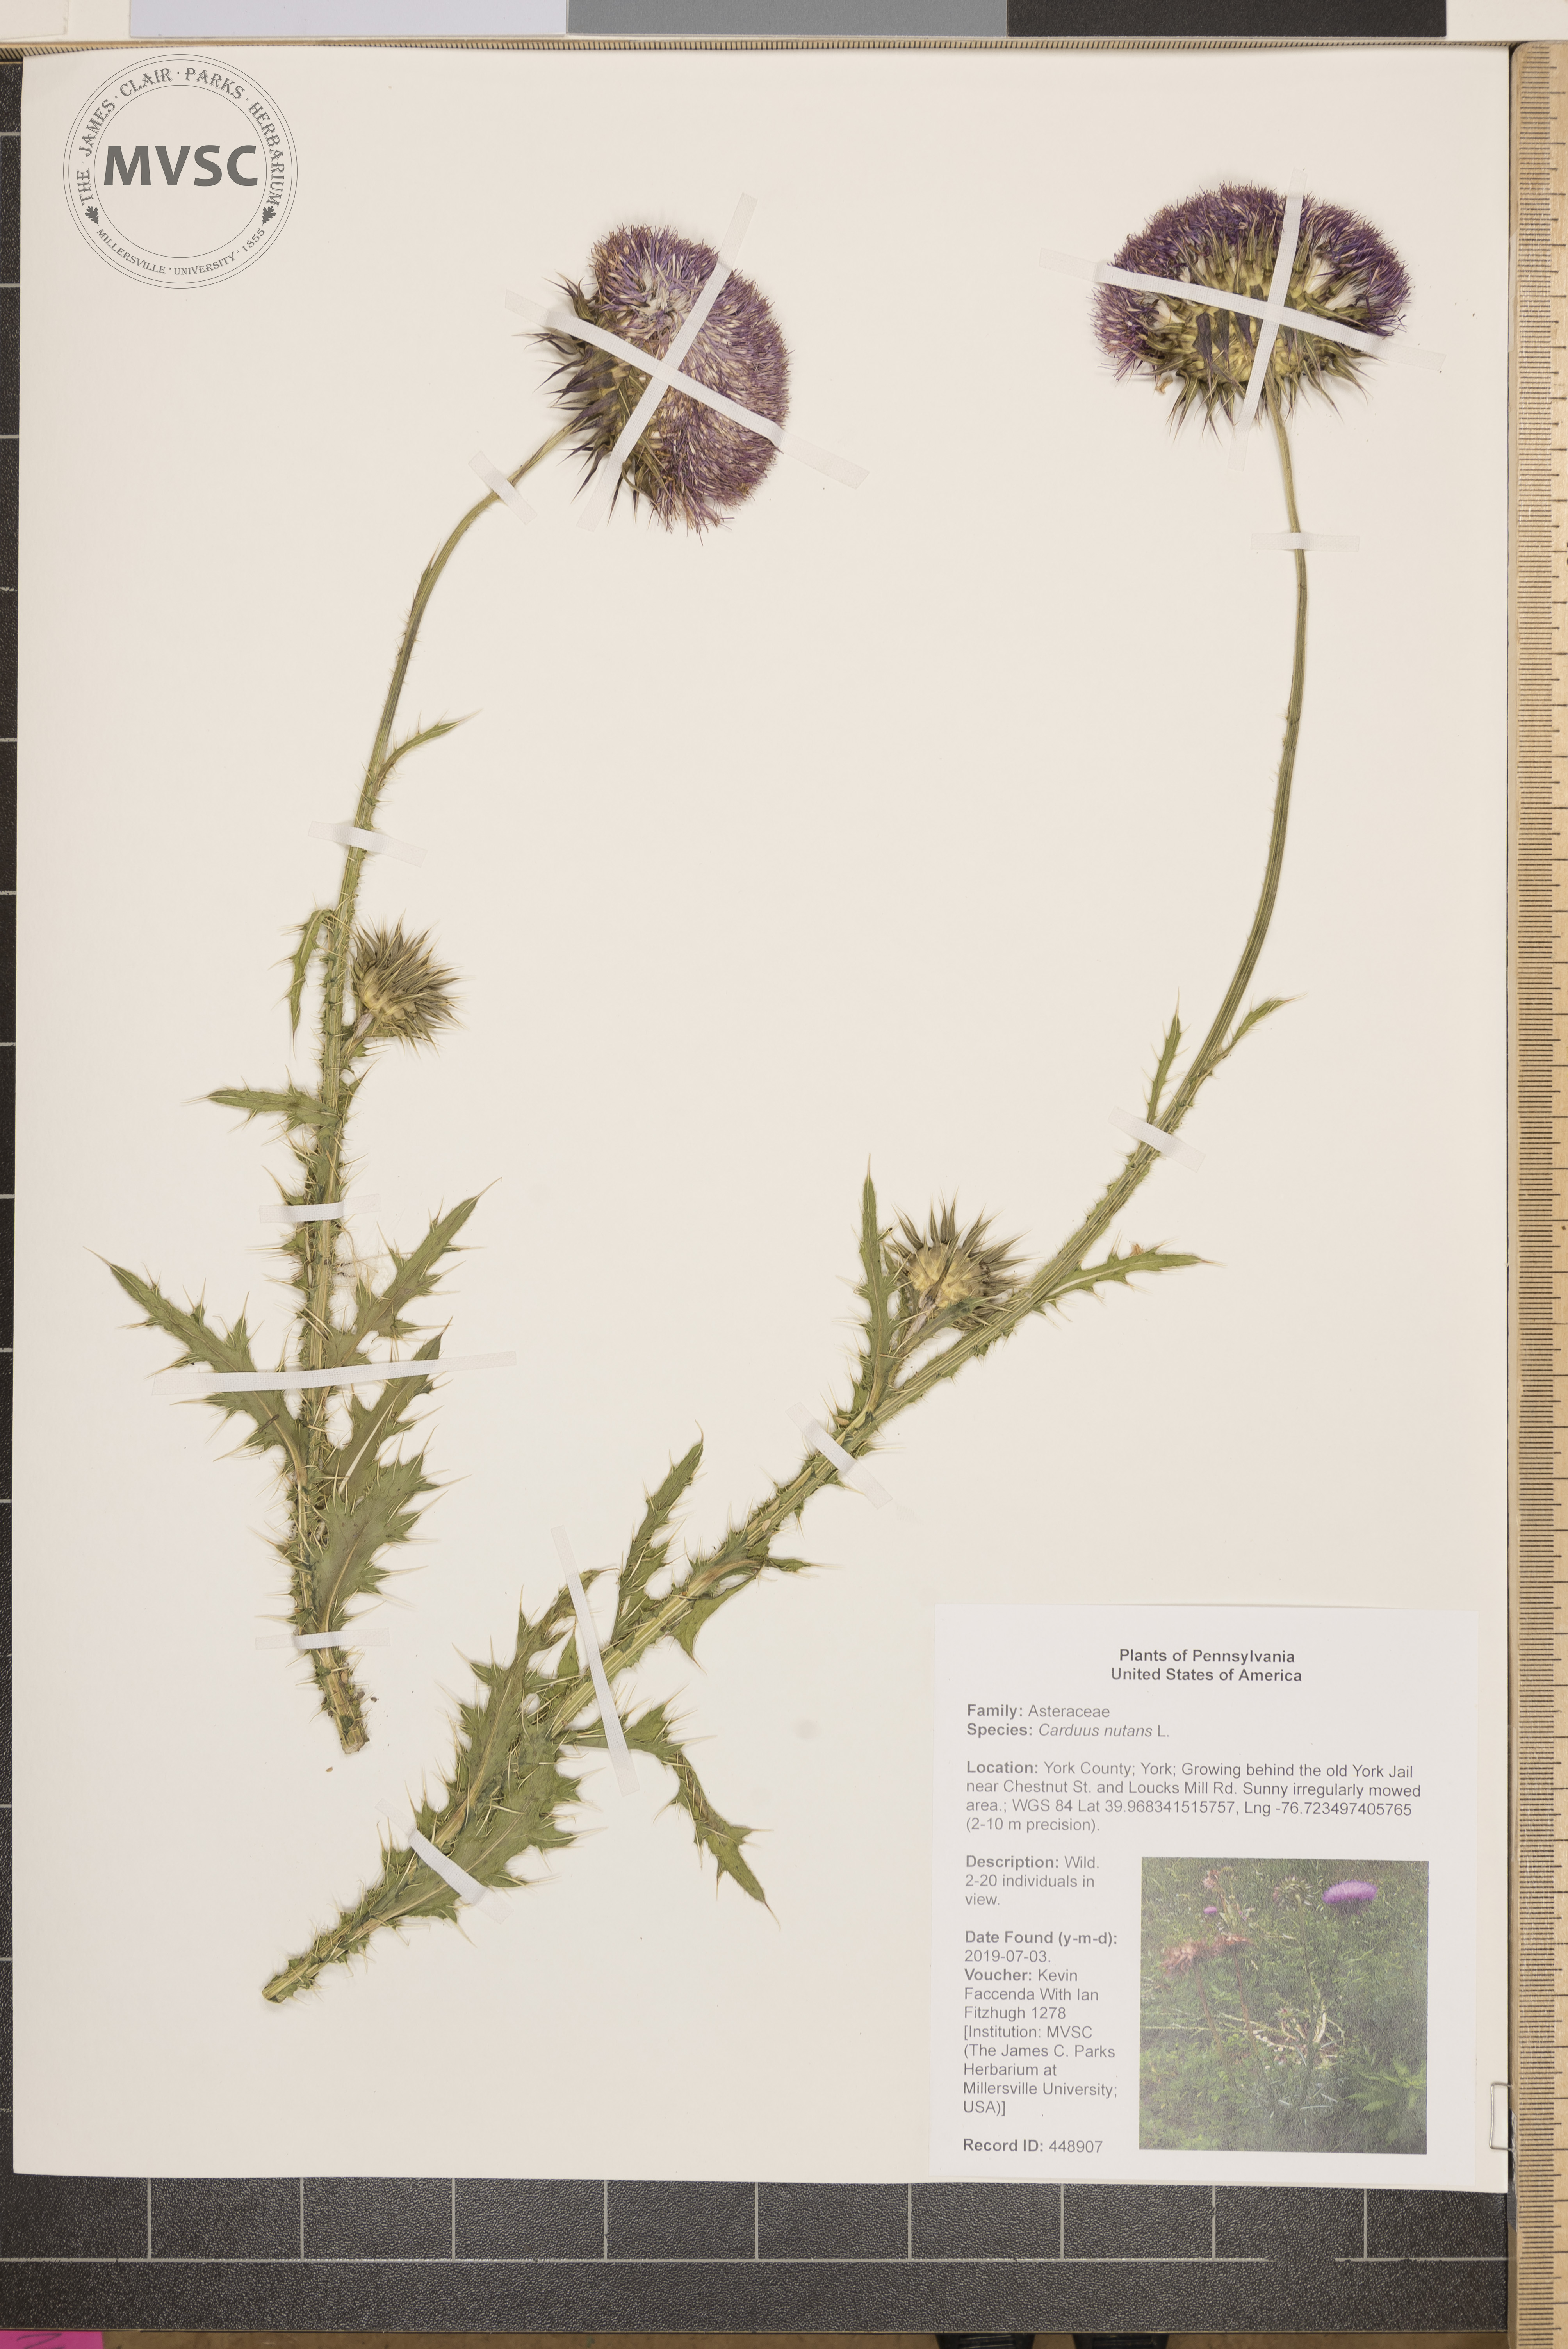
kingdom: Plantae
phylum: Tracheophyta
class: Magnoliopsida
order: Asterales
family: Asteraceae
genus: Carduus
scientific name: Carduus nutans
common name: Musk thistle
